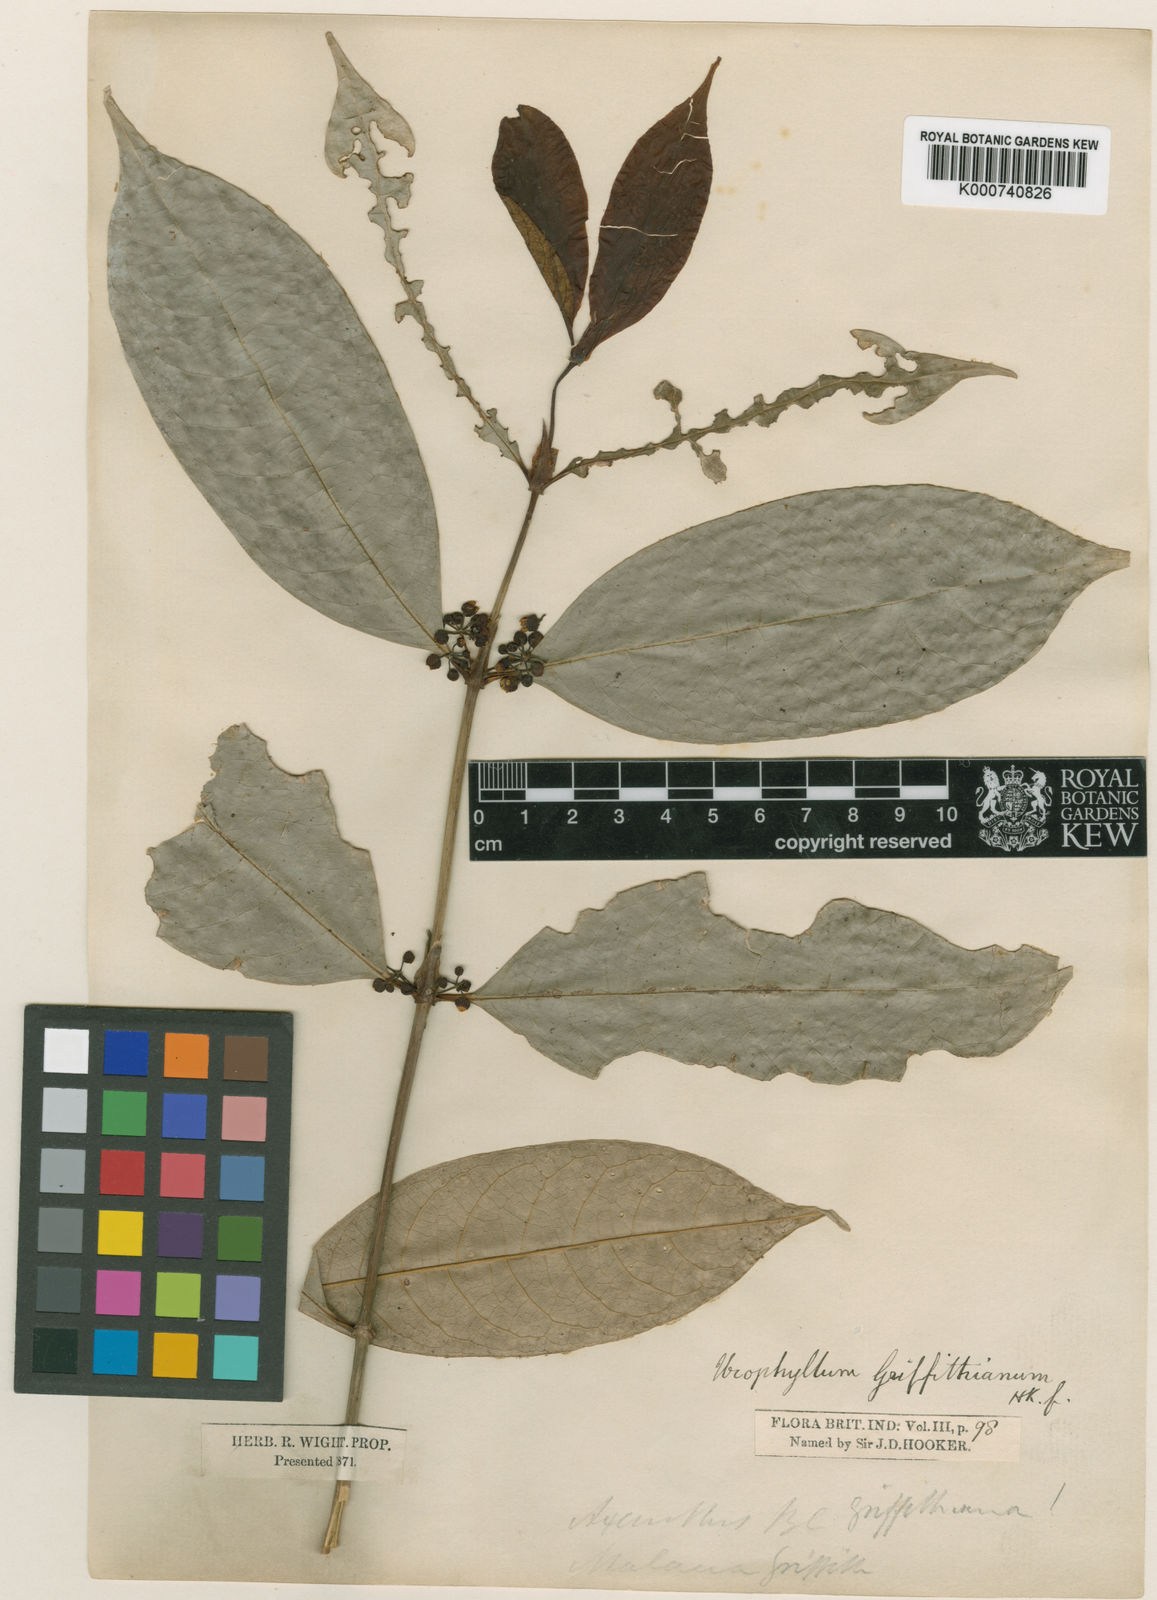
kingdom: Plantae
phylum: Tracheophyta
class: Magnoliopsida
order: Gentianales
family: Rubiaceae
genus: Urophyllum
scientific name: Urophyllum griffithianum
